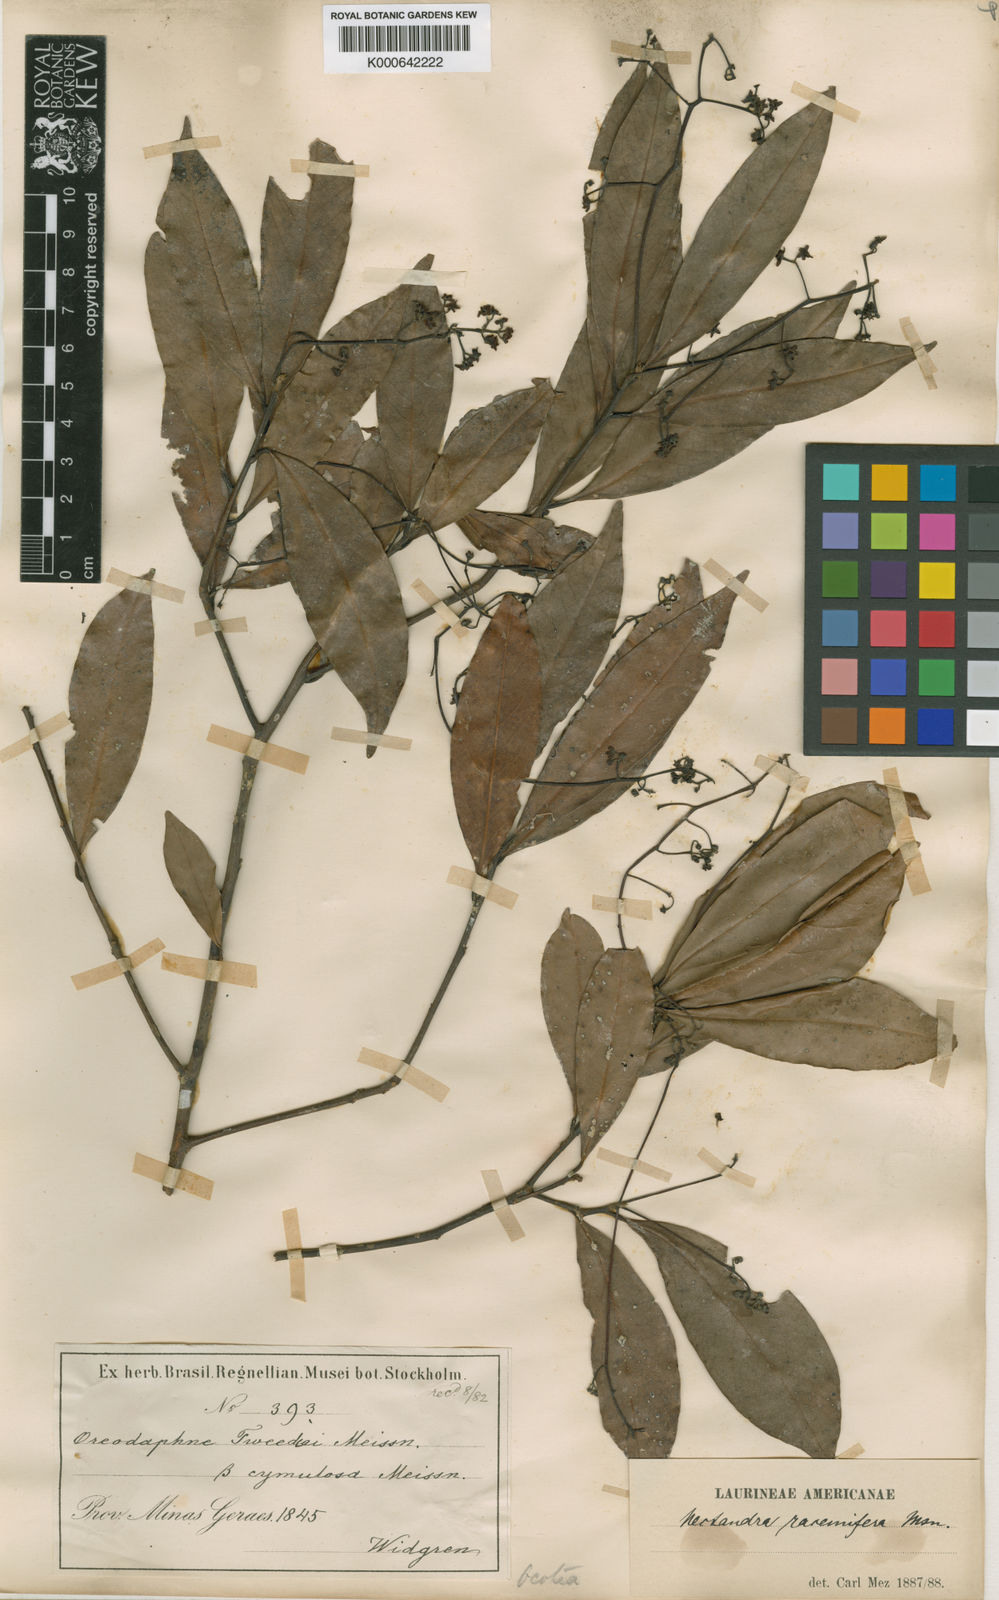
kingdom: Plantae
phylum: Tracheophyta
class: Magnoliopsida
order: Laurales
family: Lauraceae
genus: Nectandra
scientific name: Nectandra megapotamica
